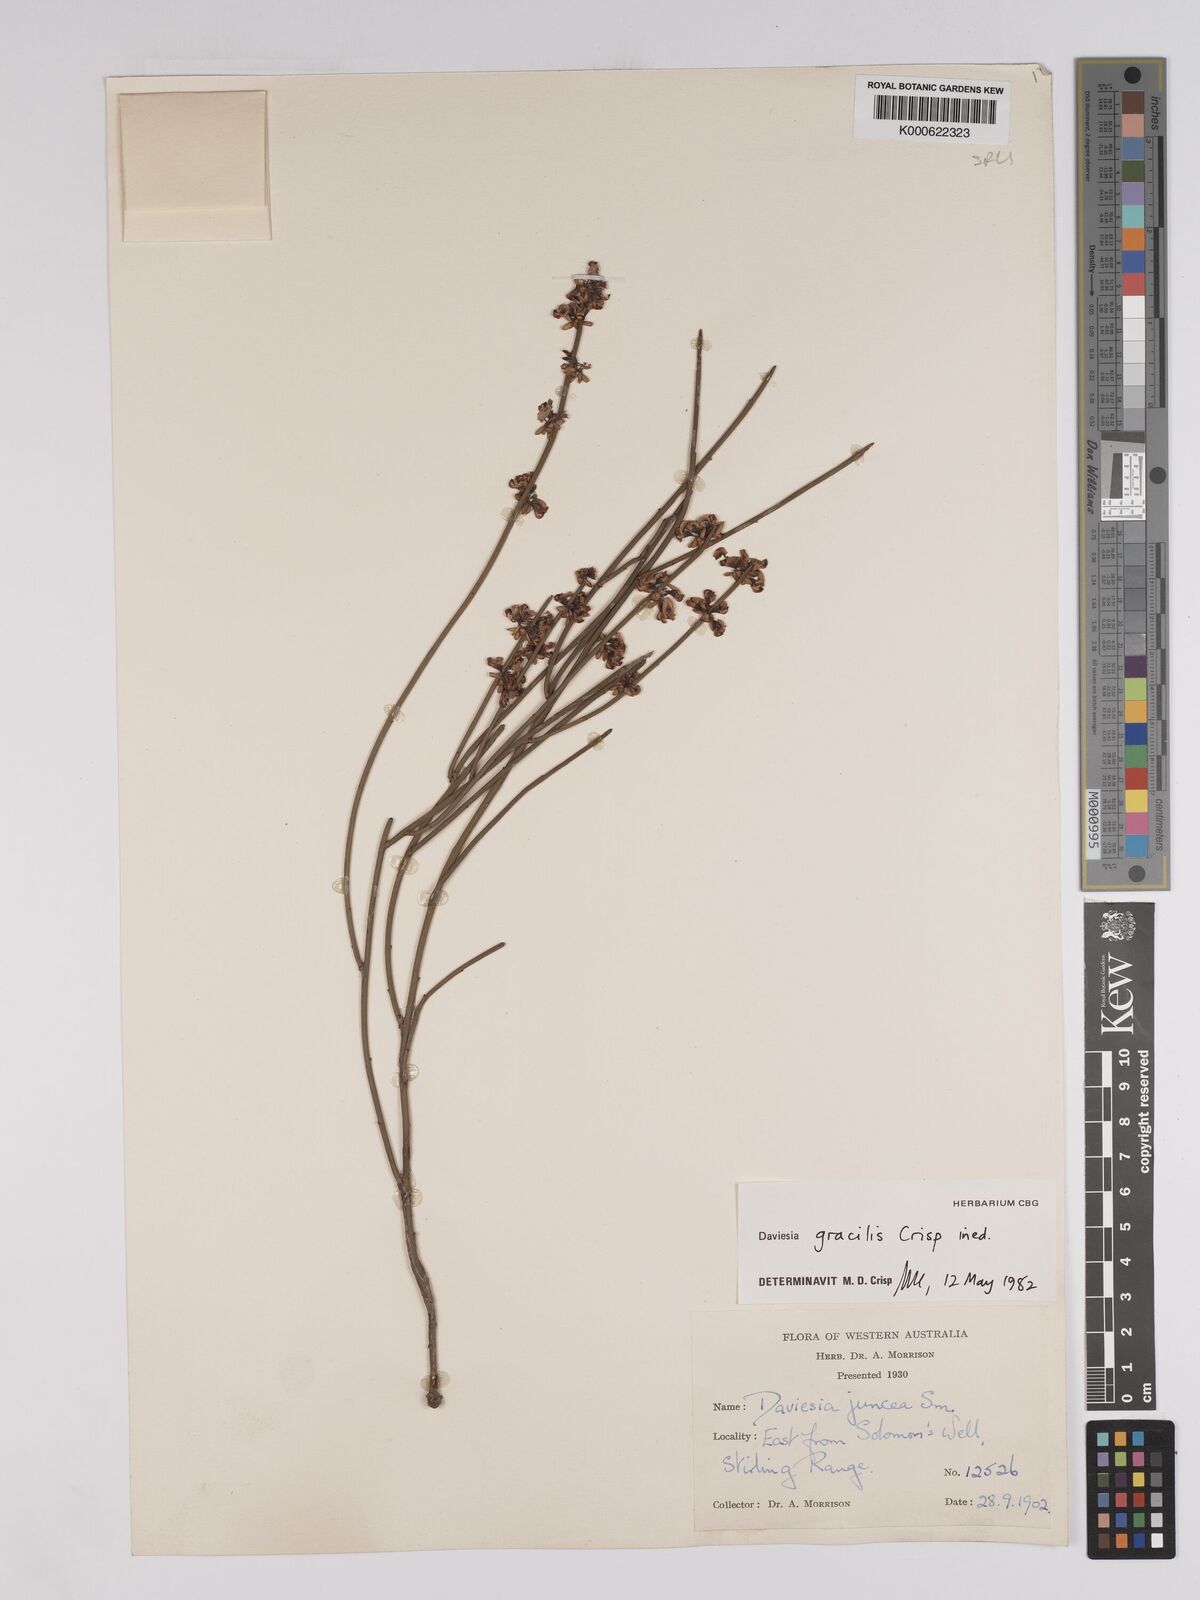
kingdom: Plantae
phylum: Tracheophyta
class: Magnoliopsida
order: Fabales
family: Fabaceae
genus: Daviesia
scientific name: Daviesia gracilis
